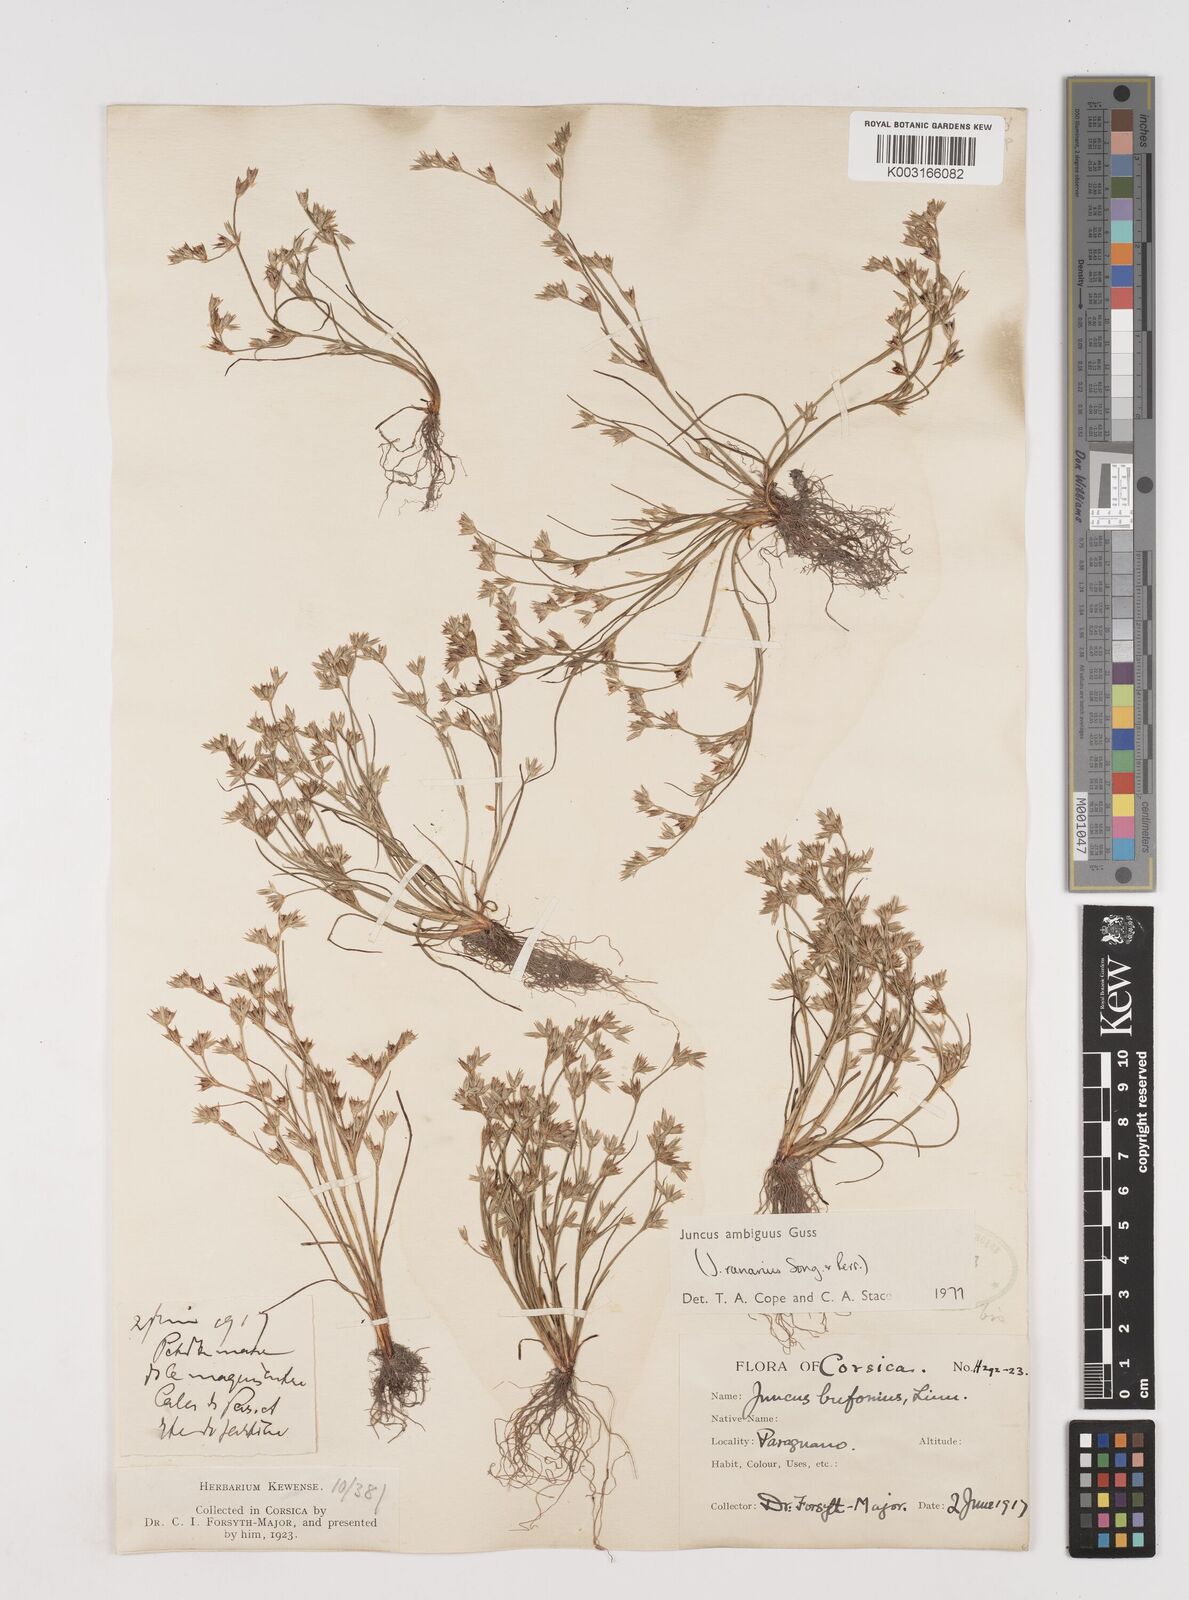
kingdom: Plantae
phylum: Tracheophyta
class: Liliopsida
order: Poales
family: Juncaceae
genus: Juncus
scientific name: Juncus hybridus
